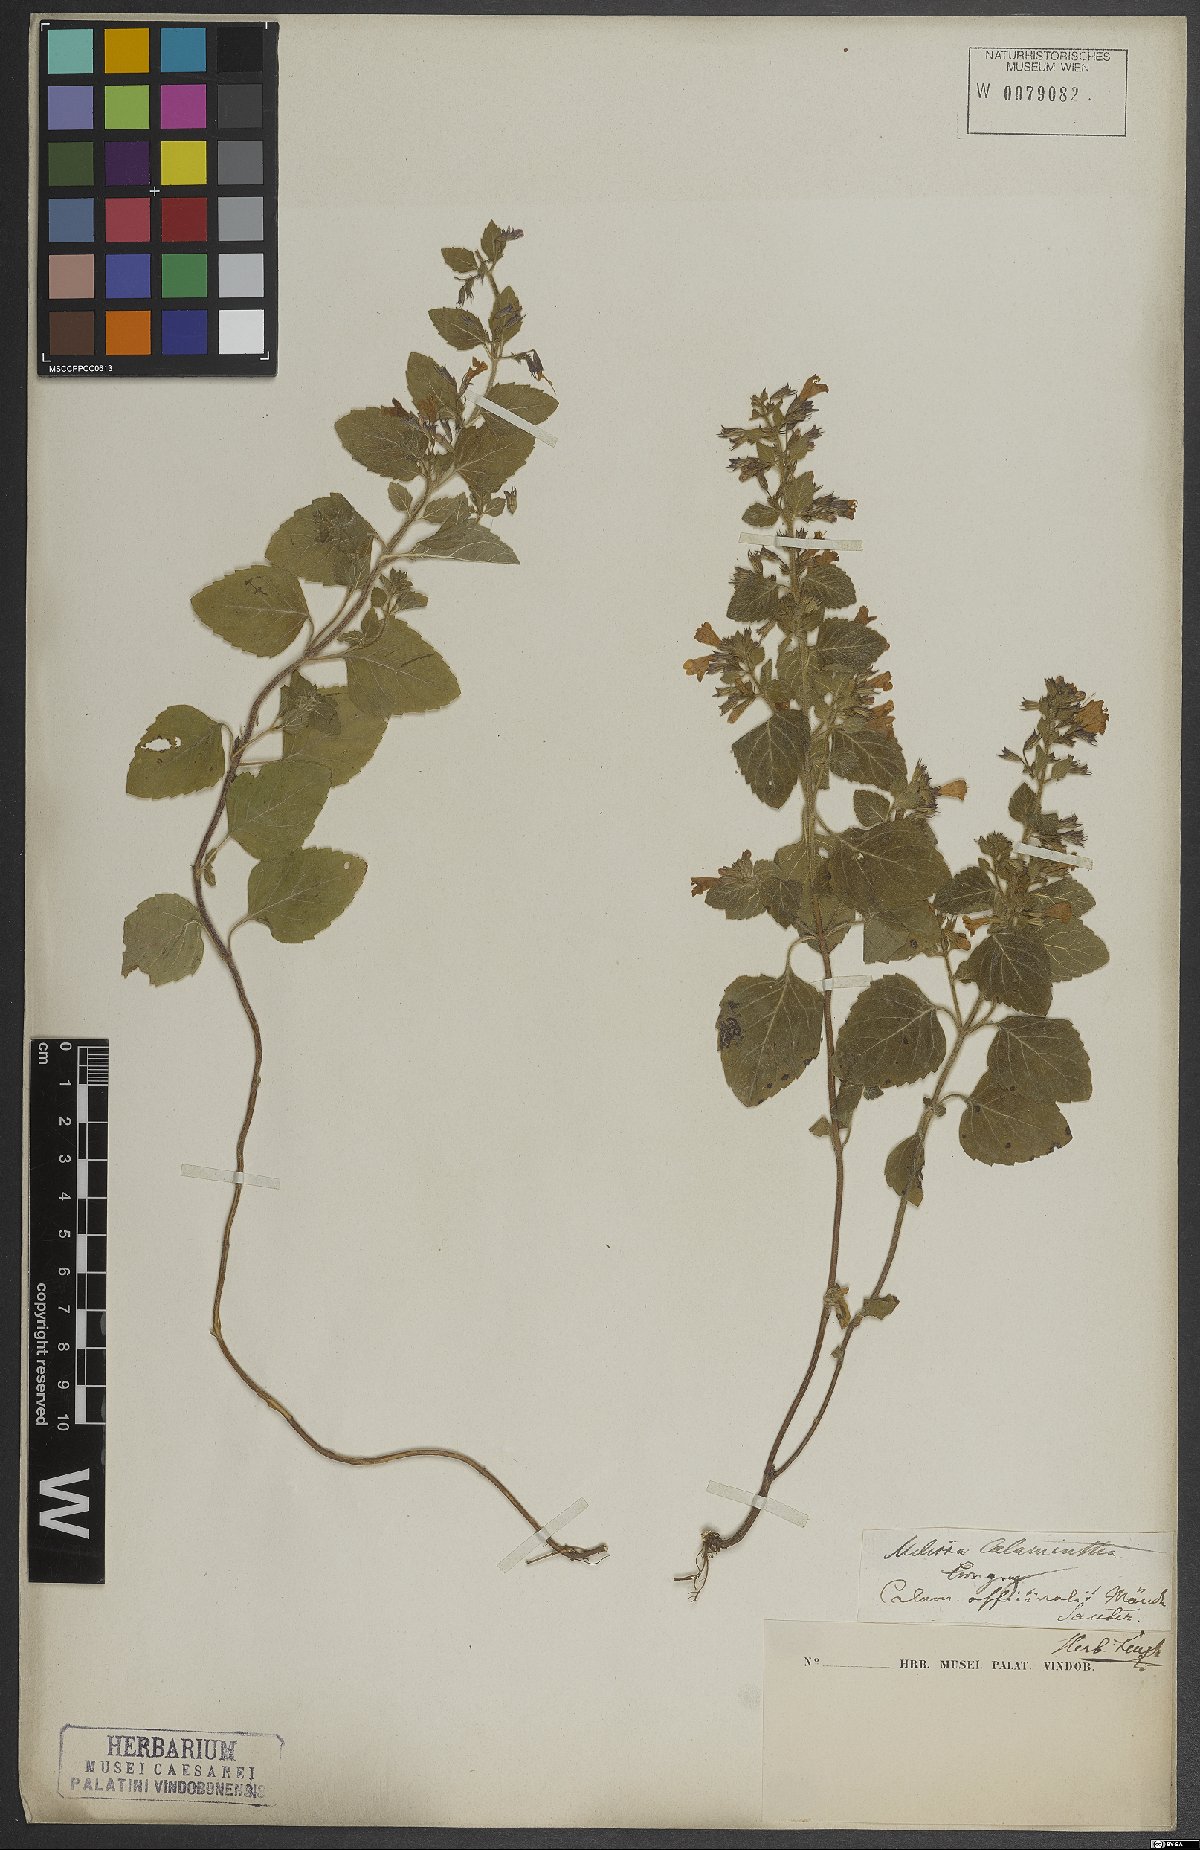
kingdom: Plantae
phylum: Tracheophyta
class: Magnoliopsida
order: Lamiales
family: Lamiaceae
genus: Clinopodium
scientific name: Clinopodium nepeta
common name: Lesser calamint
